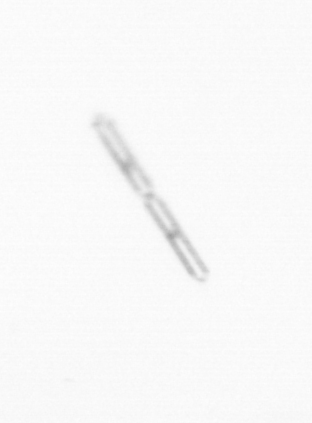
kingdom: Chromista
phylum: Ochrophyta
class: Bacillariophyceae
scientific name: Bacillariophyceae
